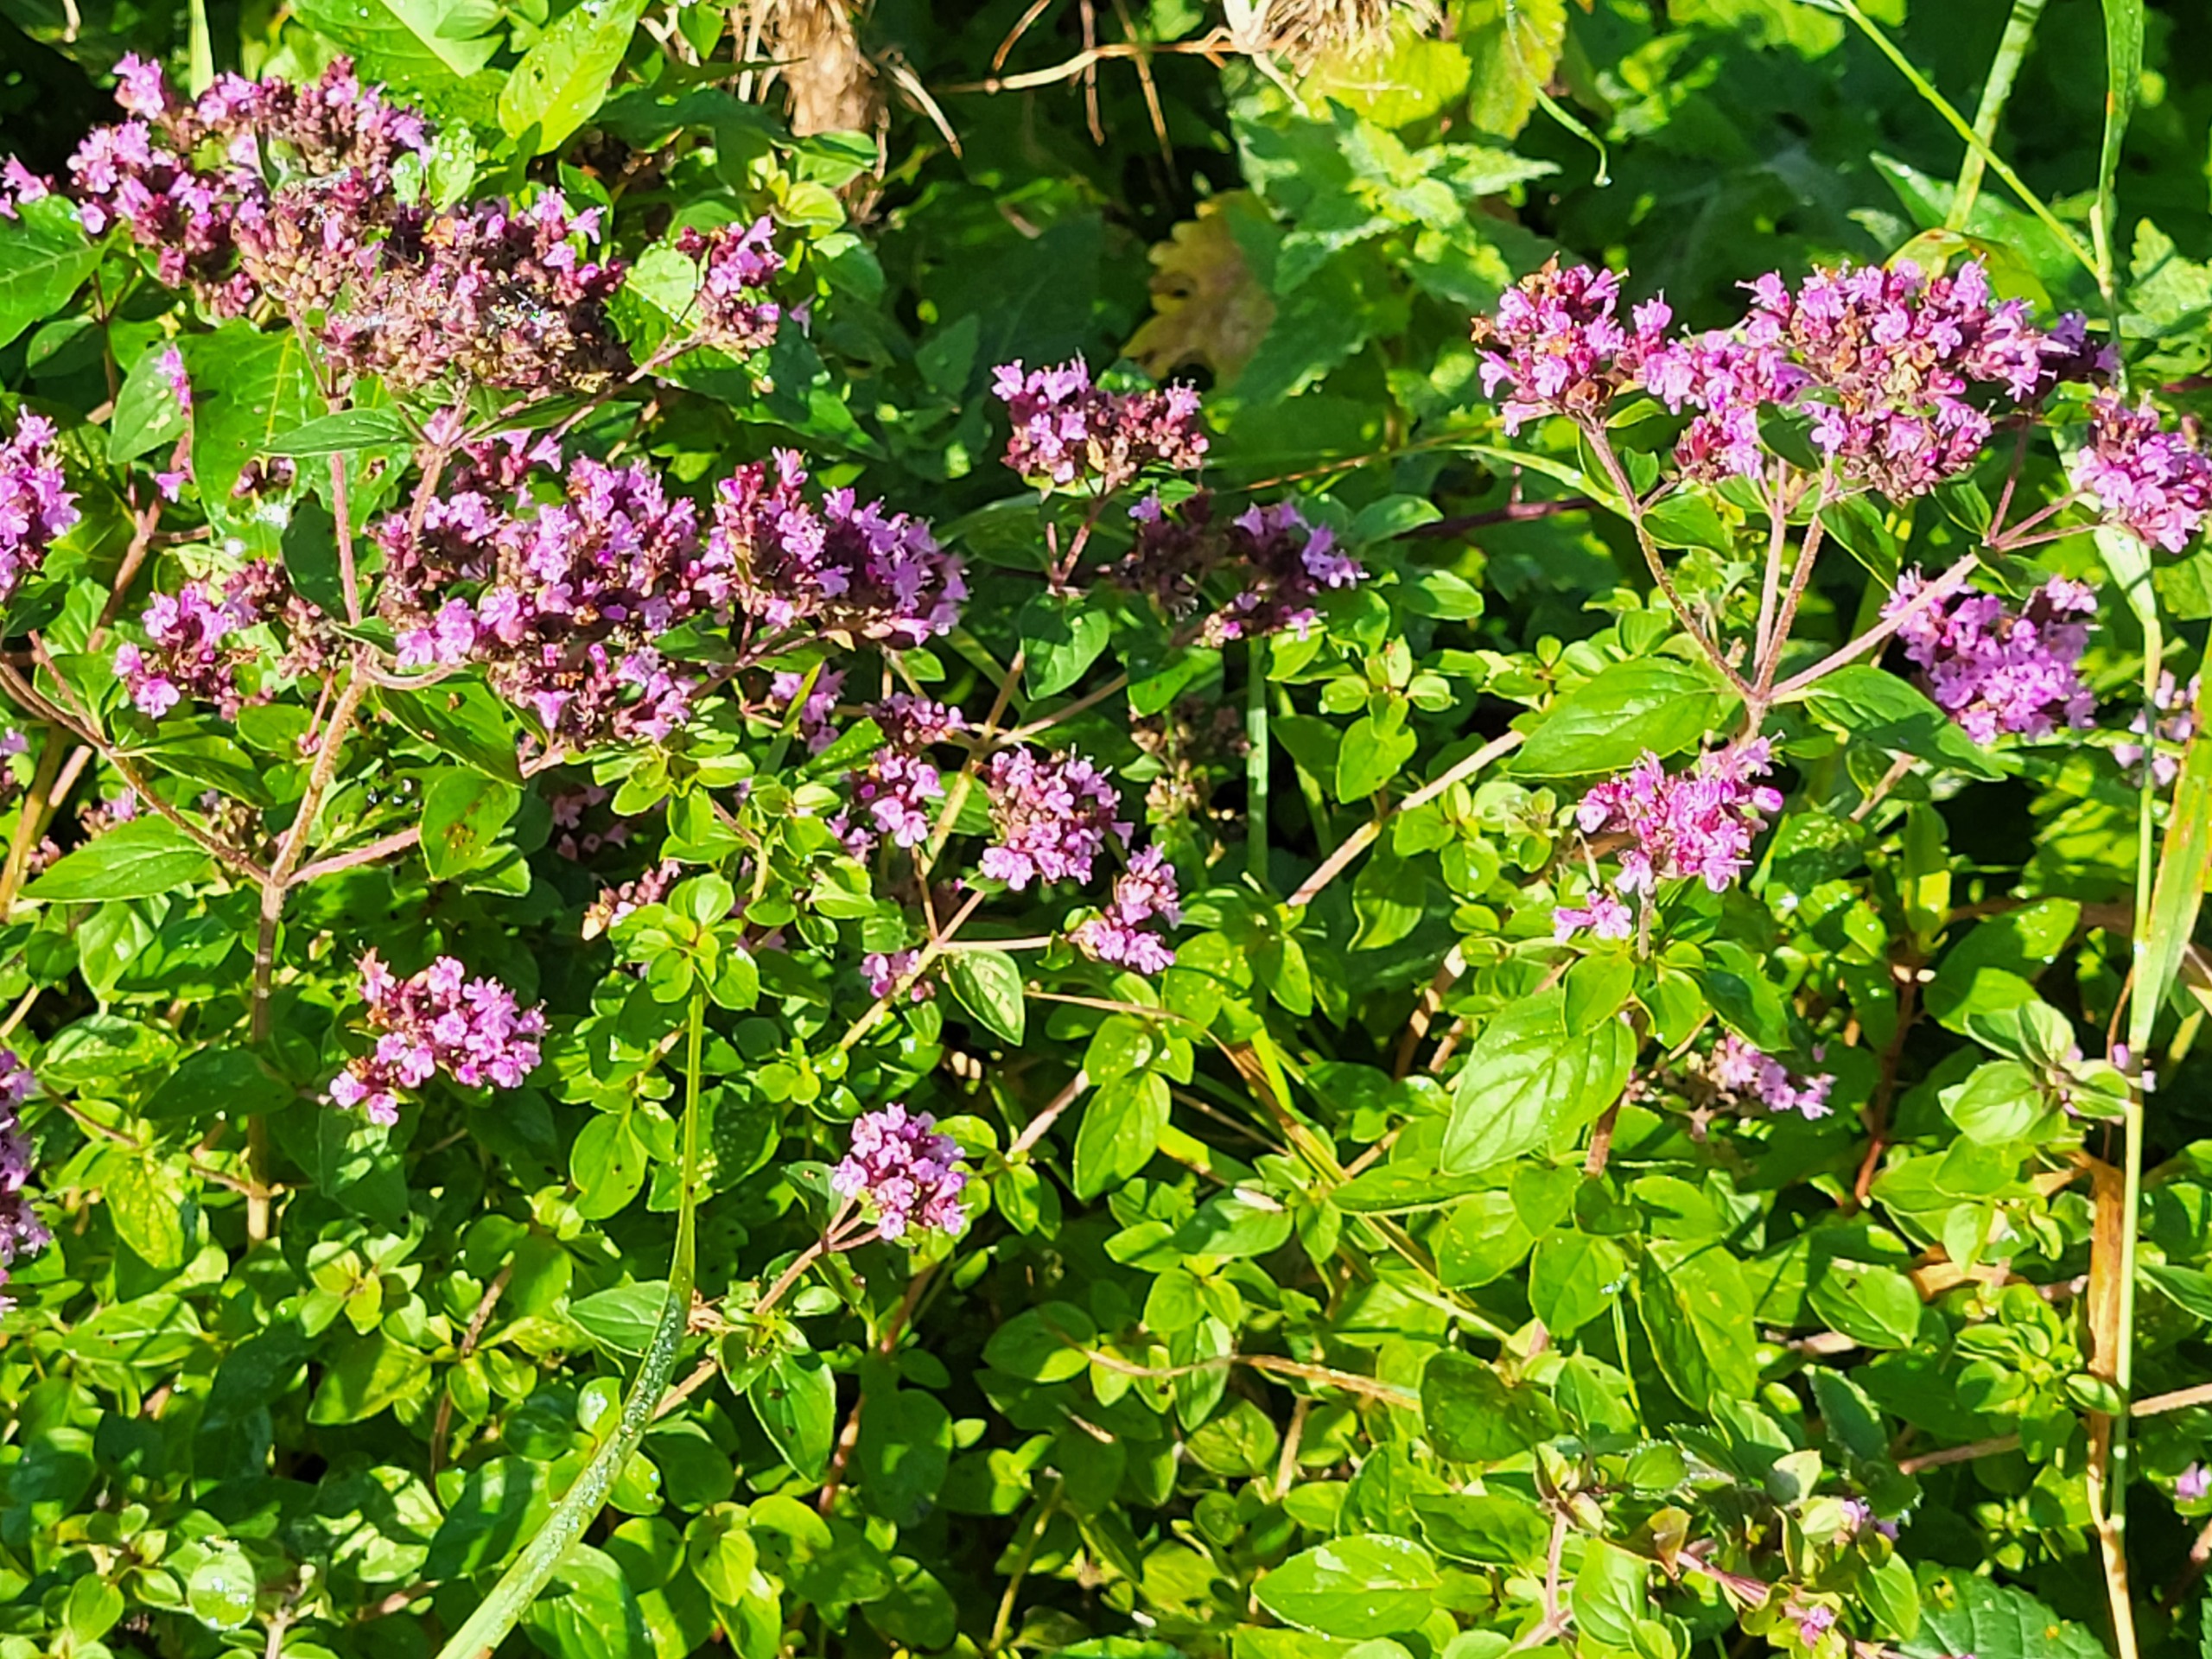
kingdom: Plantae
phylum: Tracheophyta
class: Magnoliopsida
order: Lamiales
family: Lamiaceae
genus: Origanum
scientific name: Origanum vulgare
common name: Merian
